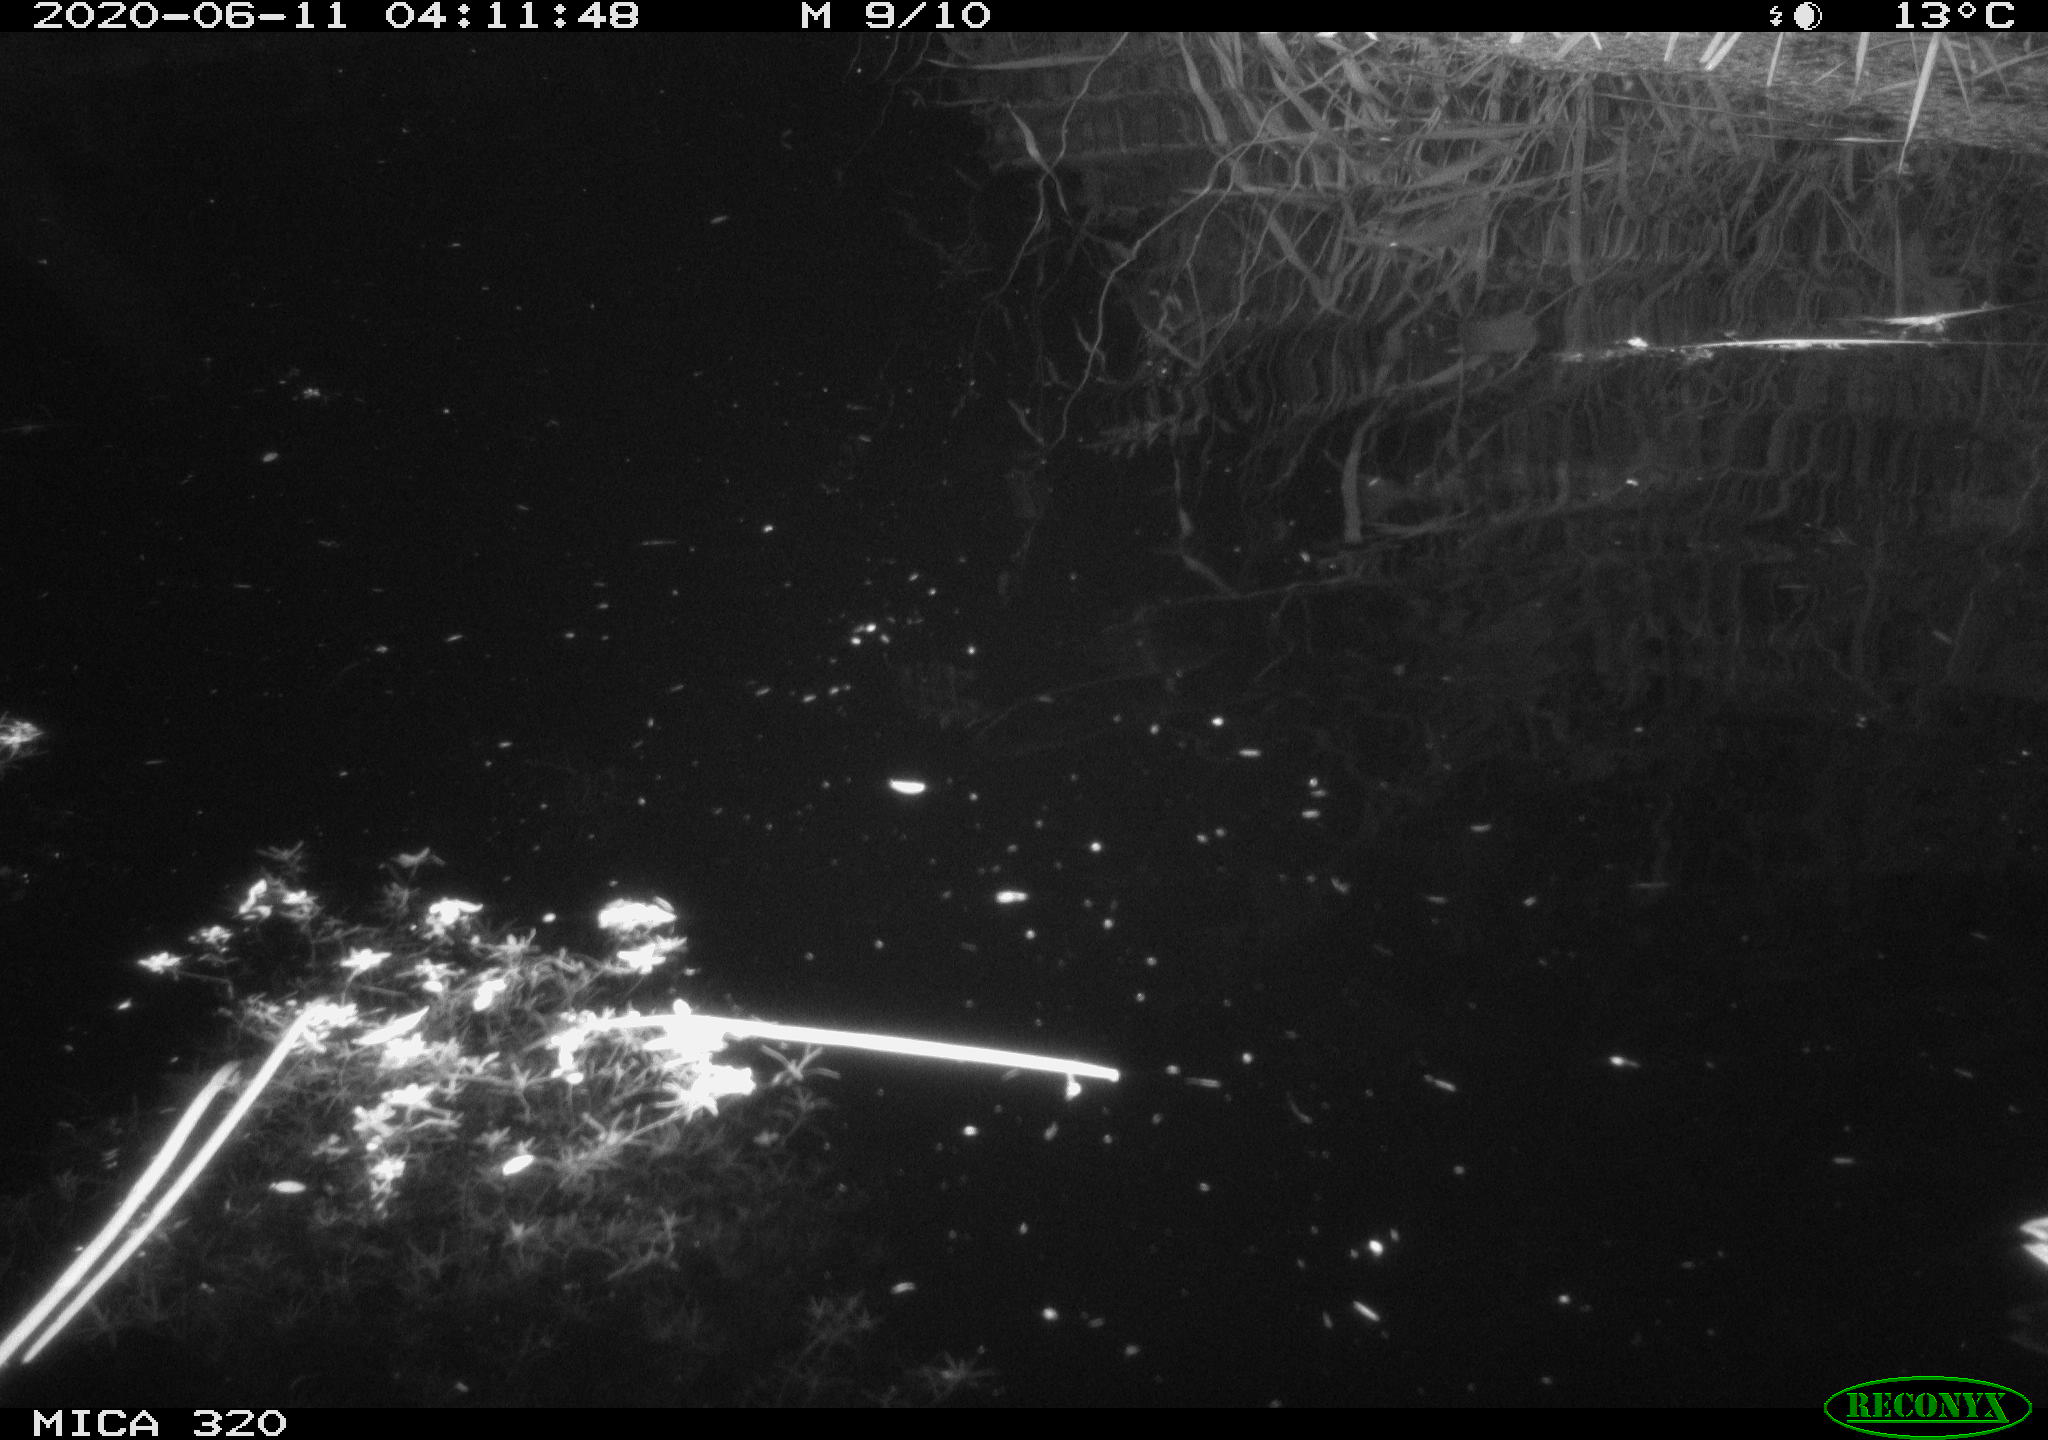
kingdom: Animalia
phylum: Chordata
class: Aves
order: Anseriformes
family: Anatidae
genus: Anas
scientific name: Anas platyrhynchos
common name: Mallard
